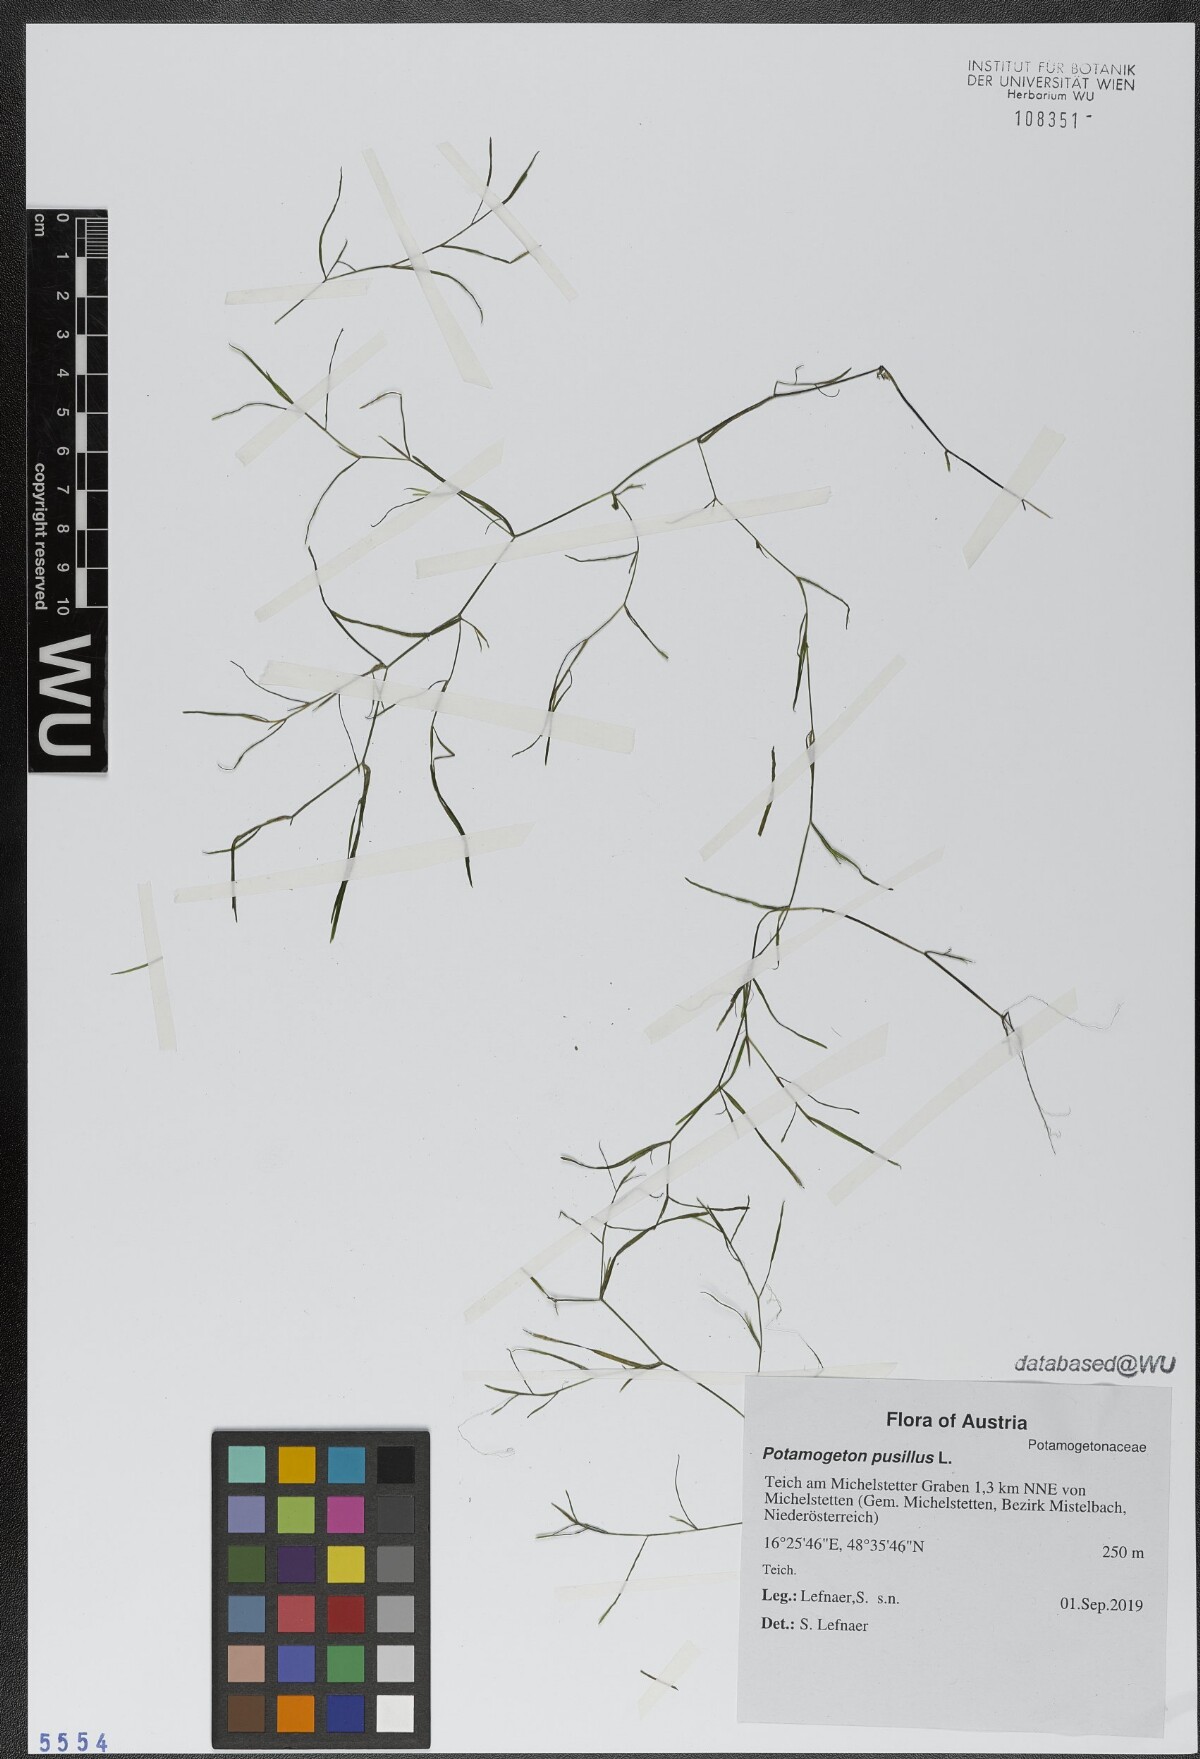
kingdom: Plantae
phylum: Tracheophyta
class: Liliopsida
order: Alismatales
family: Potamogetonaceae
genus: Potamogeton
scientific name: Potamogeton pusillus
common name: Lesser pondweed
